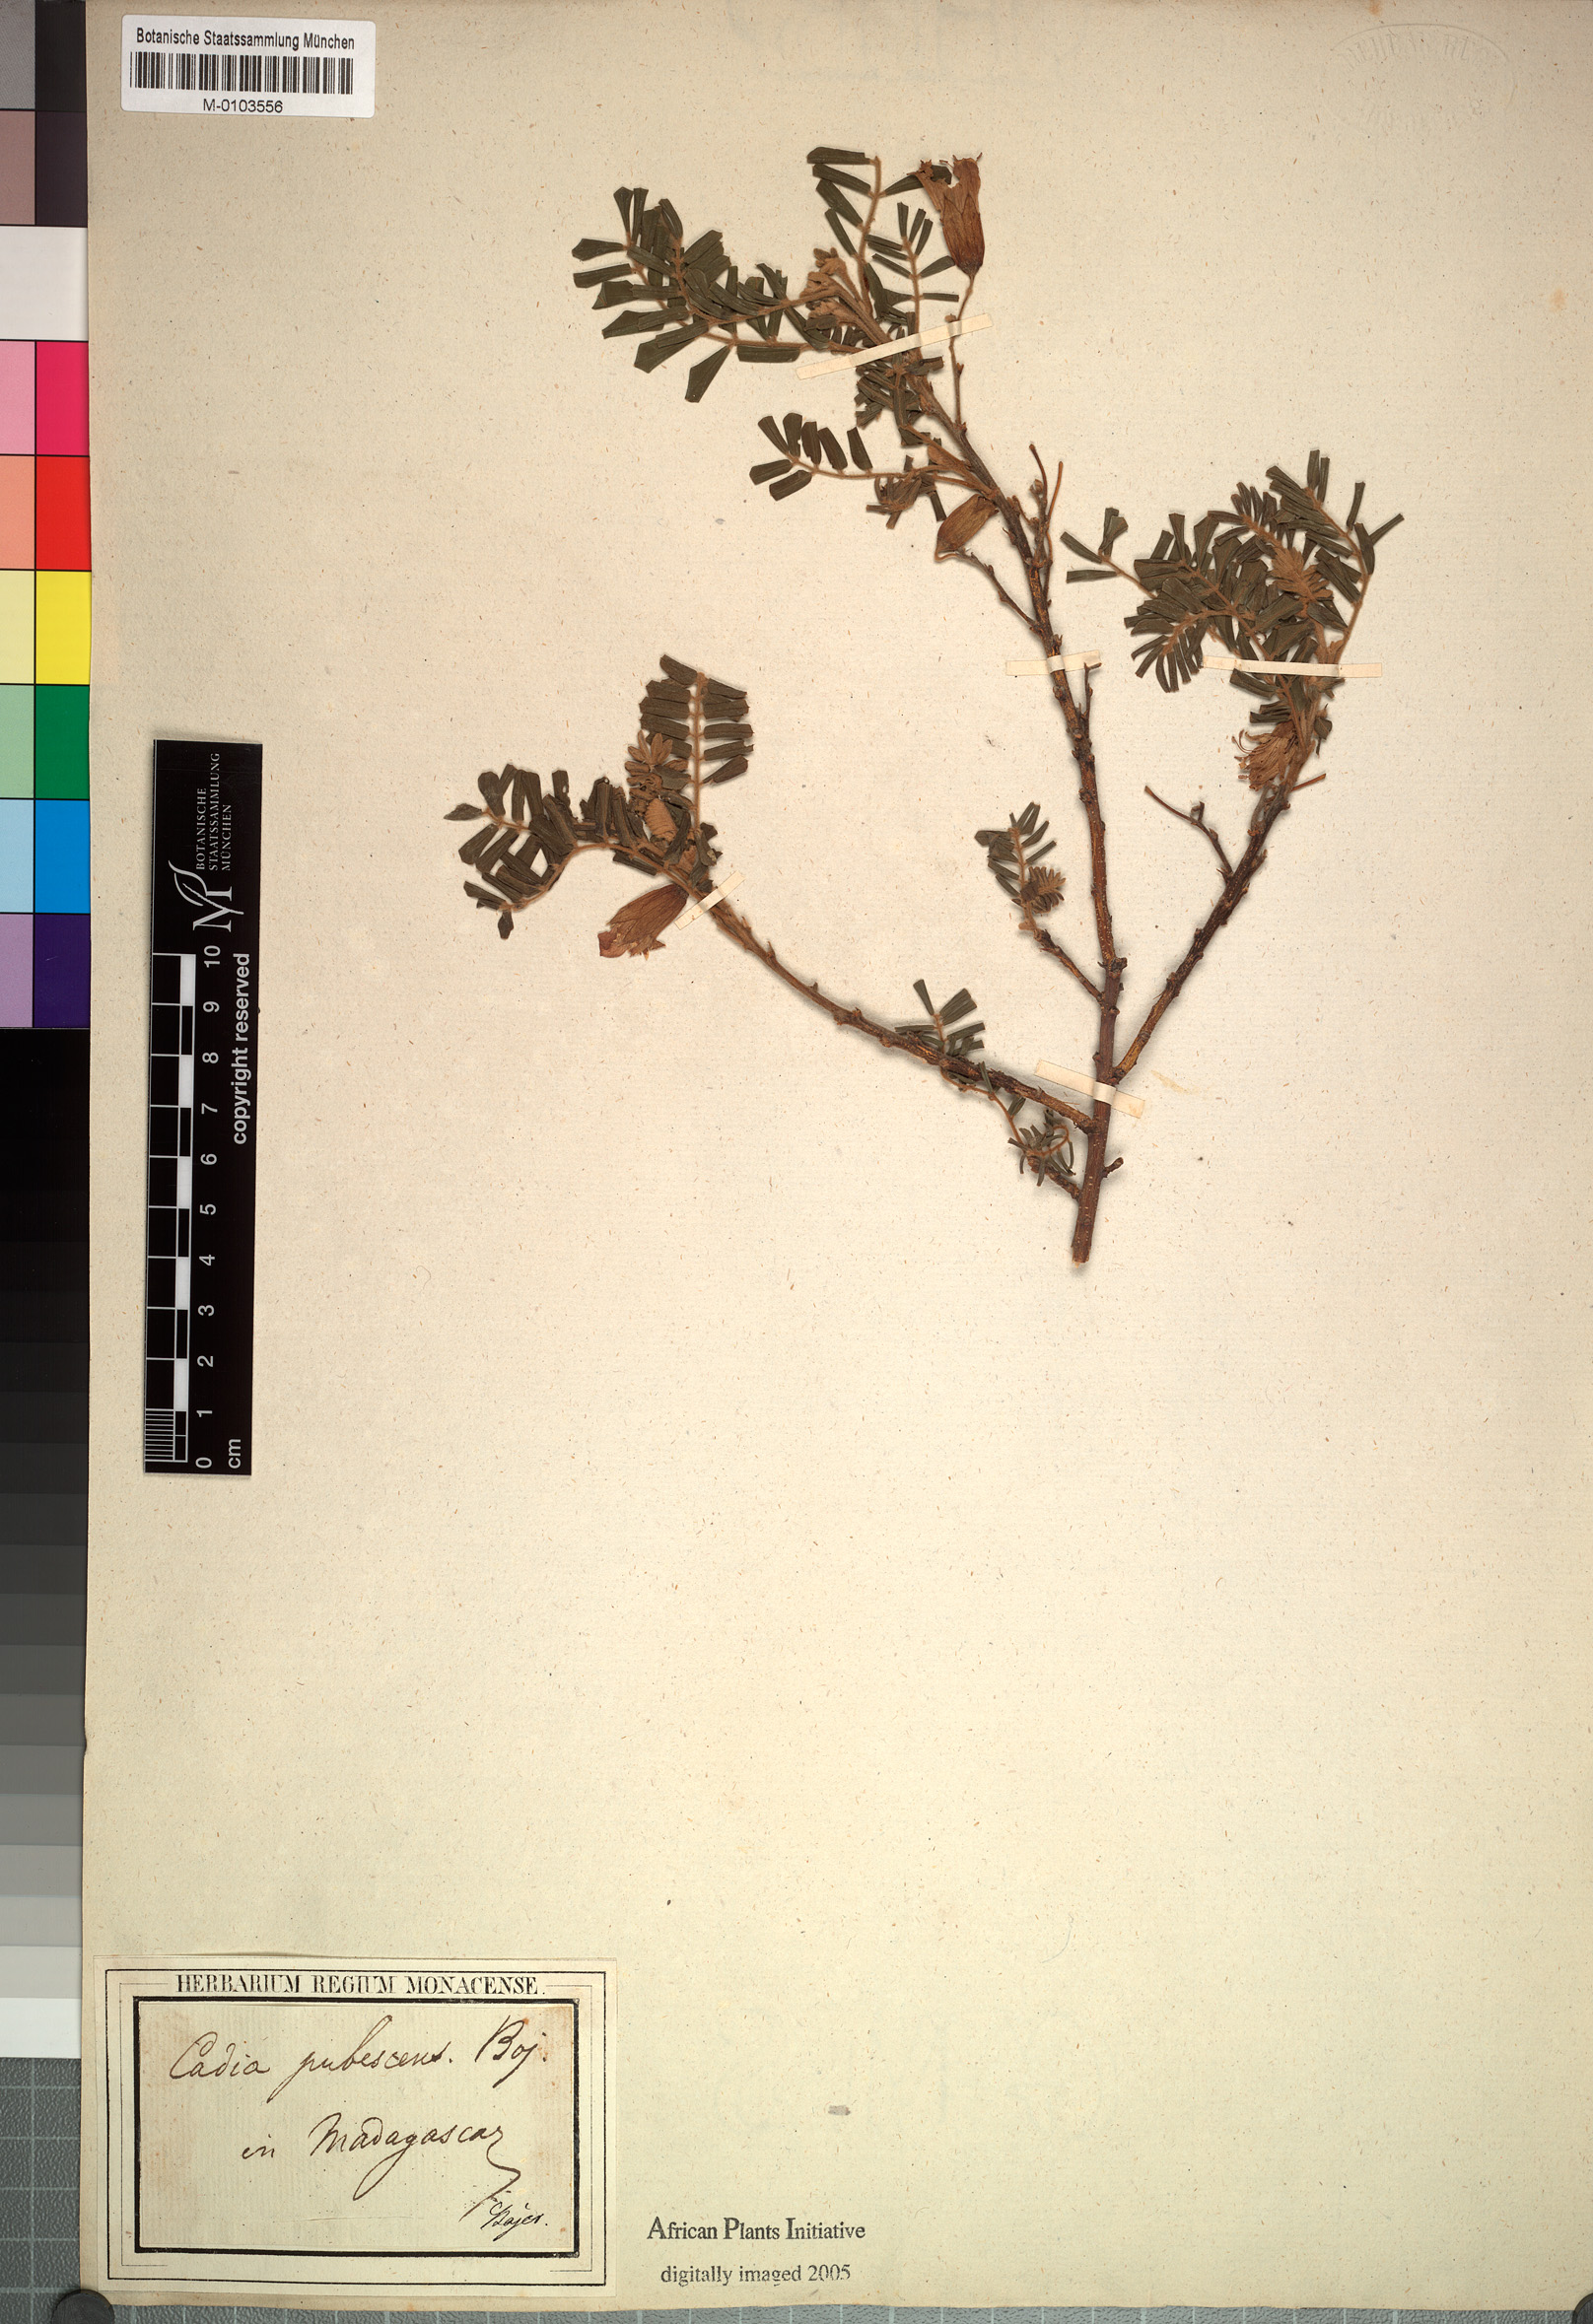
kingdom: Plantae
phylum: Tracheophyta
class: Magnoliopsida
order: Fabales
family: Fabaceae
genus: Cadia
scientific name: Cadia pubescens
